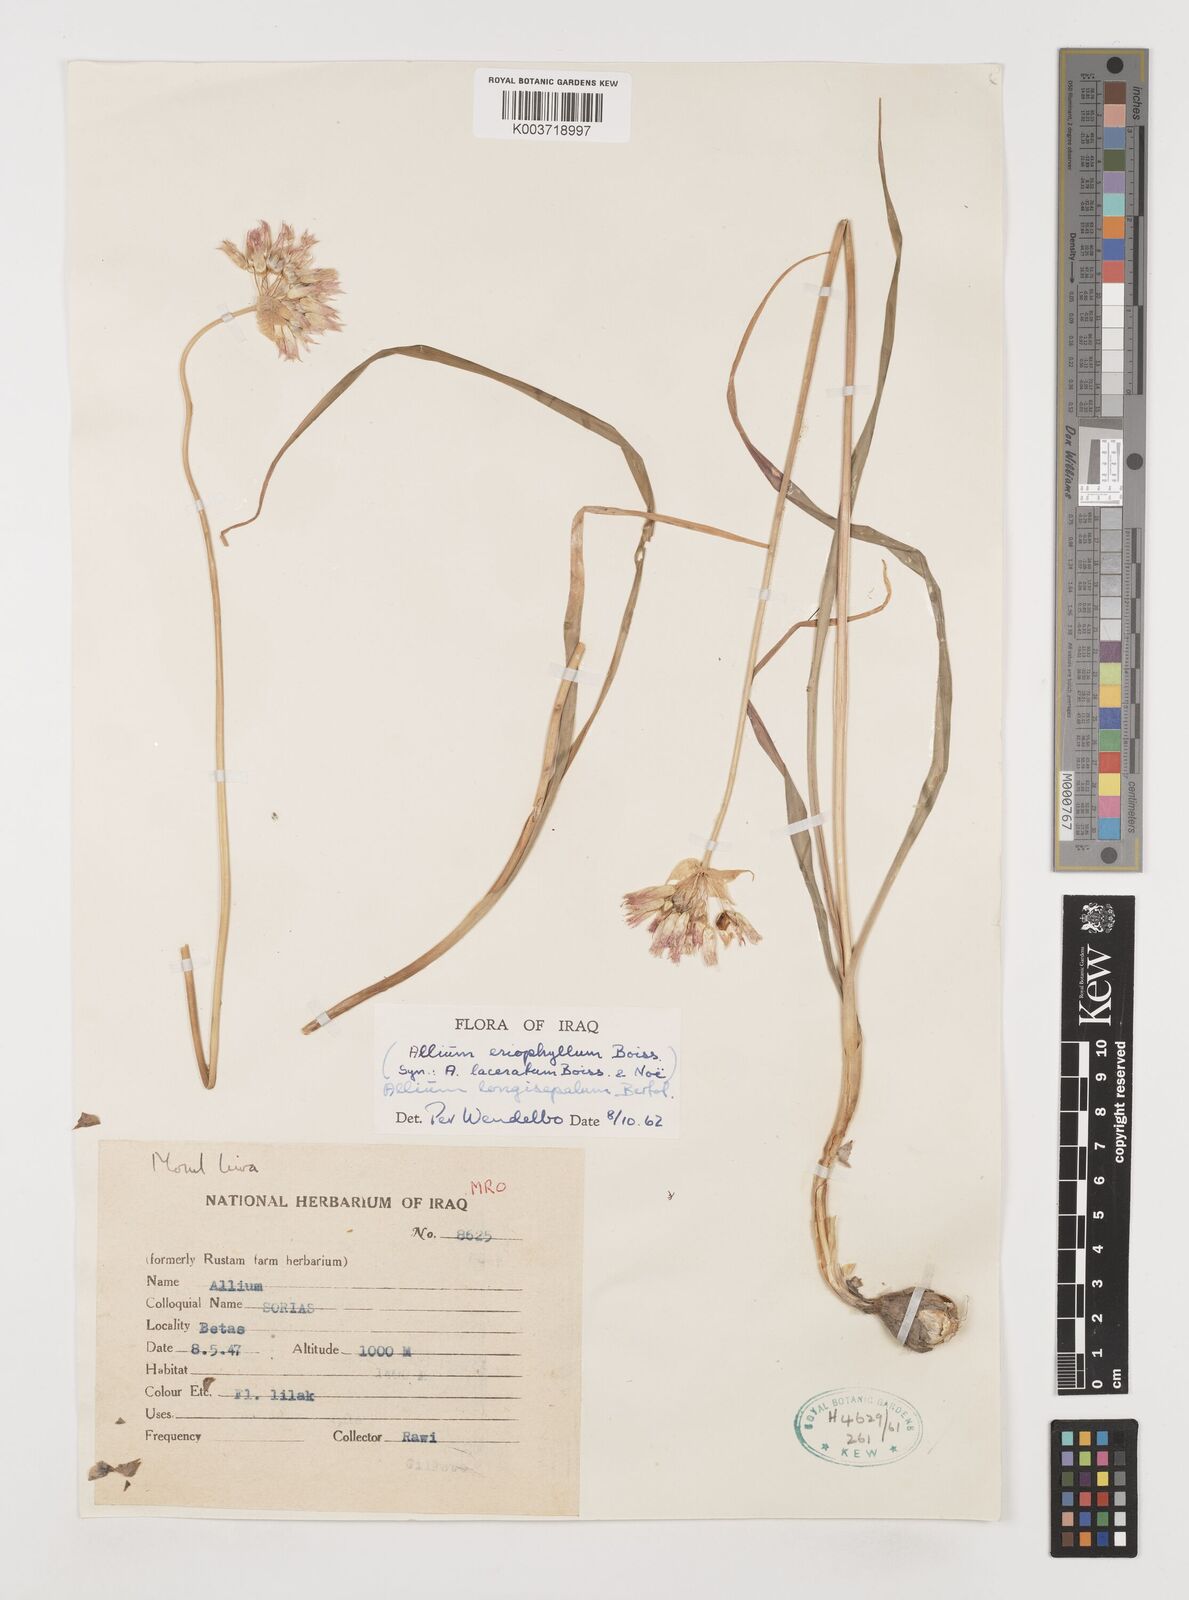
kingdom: Plantae
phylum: Tracheophyta
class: Liliopsida
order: Asparagales
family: Amaryllidaceae
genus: Allium
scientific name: Allium longisepalum
